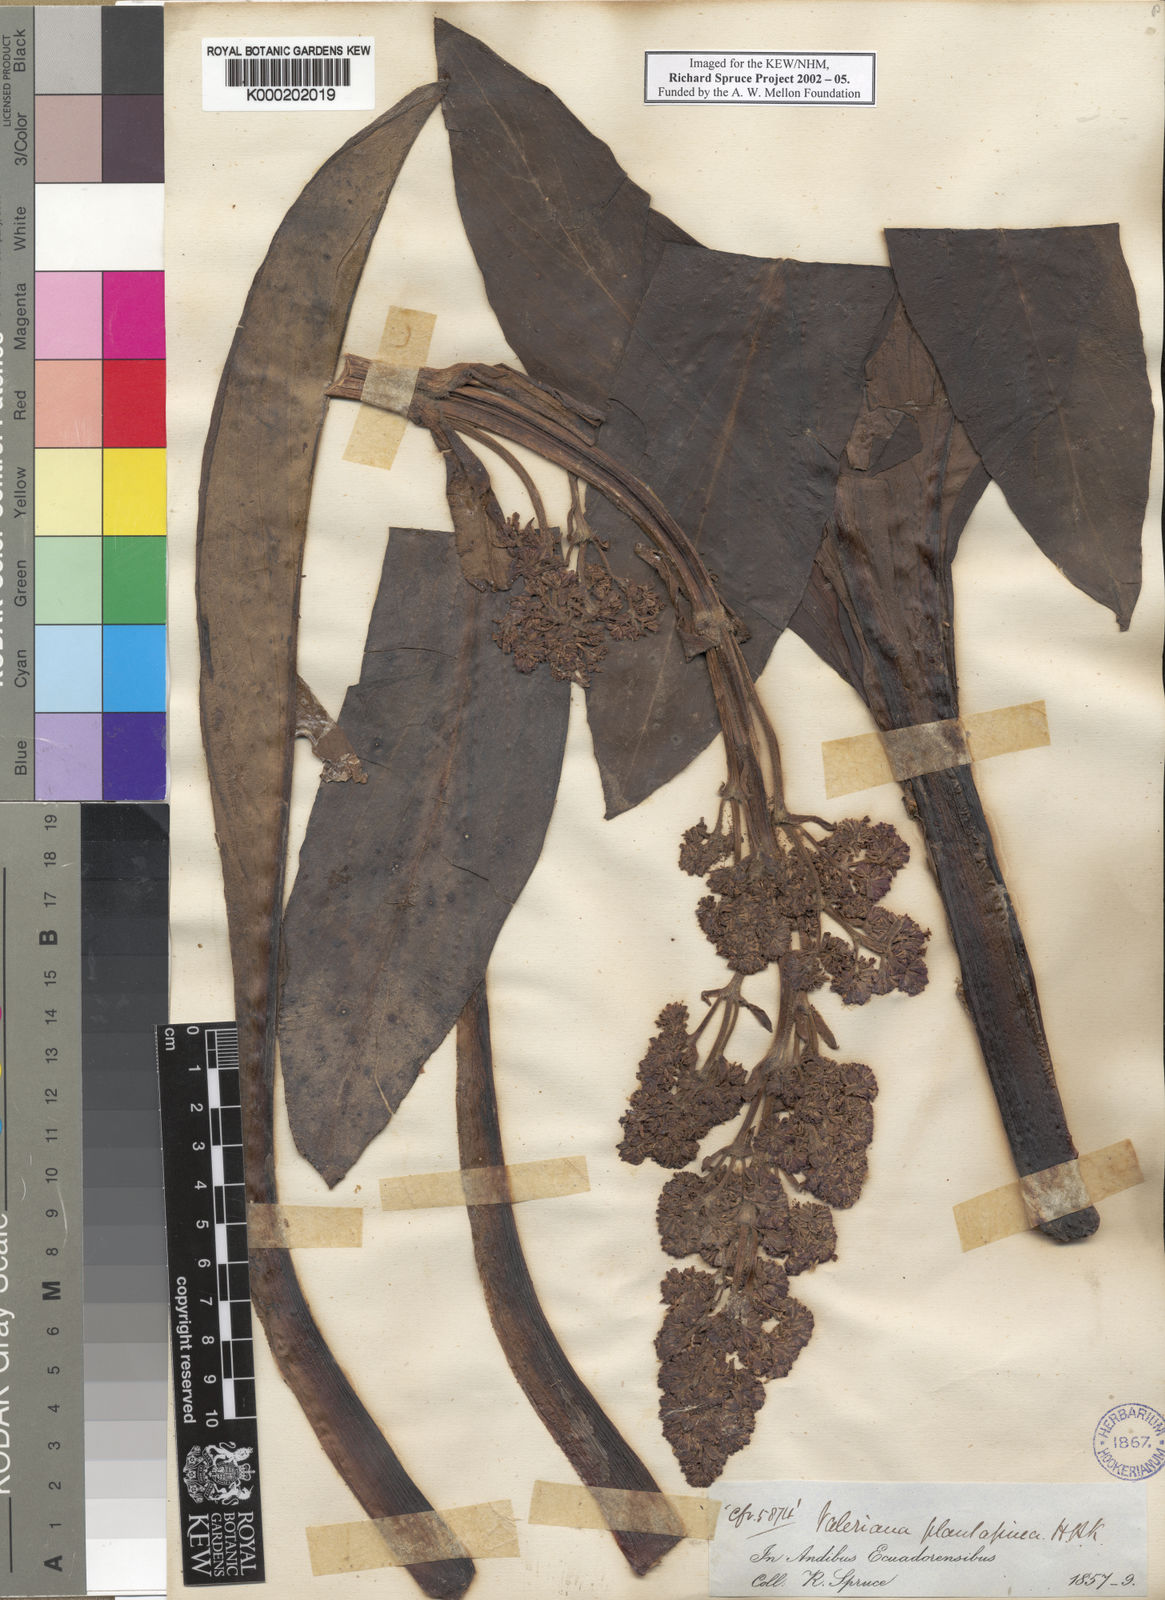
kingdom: Plantae
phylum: Tracheophyta
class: Magnoliopsida
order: Dipsacales
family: Caprifoliaceae
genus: Valeriana
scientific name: Valeriana pilosa
